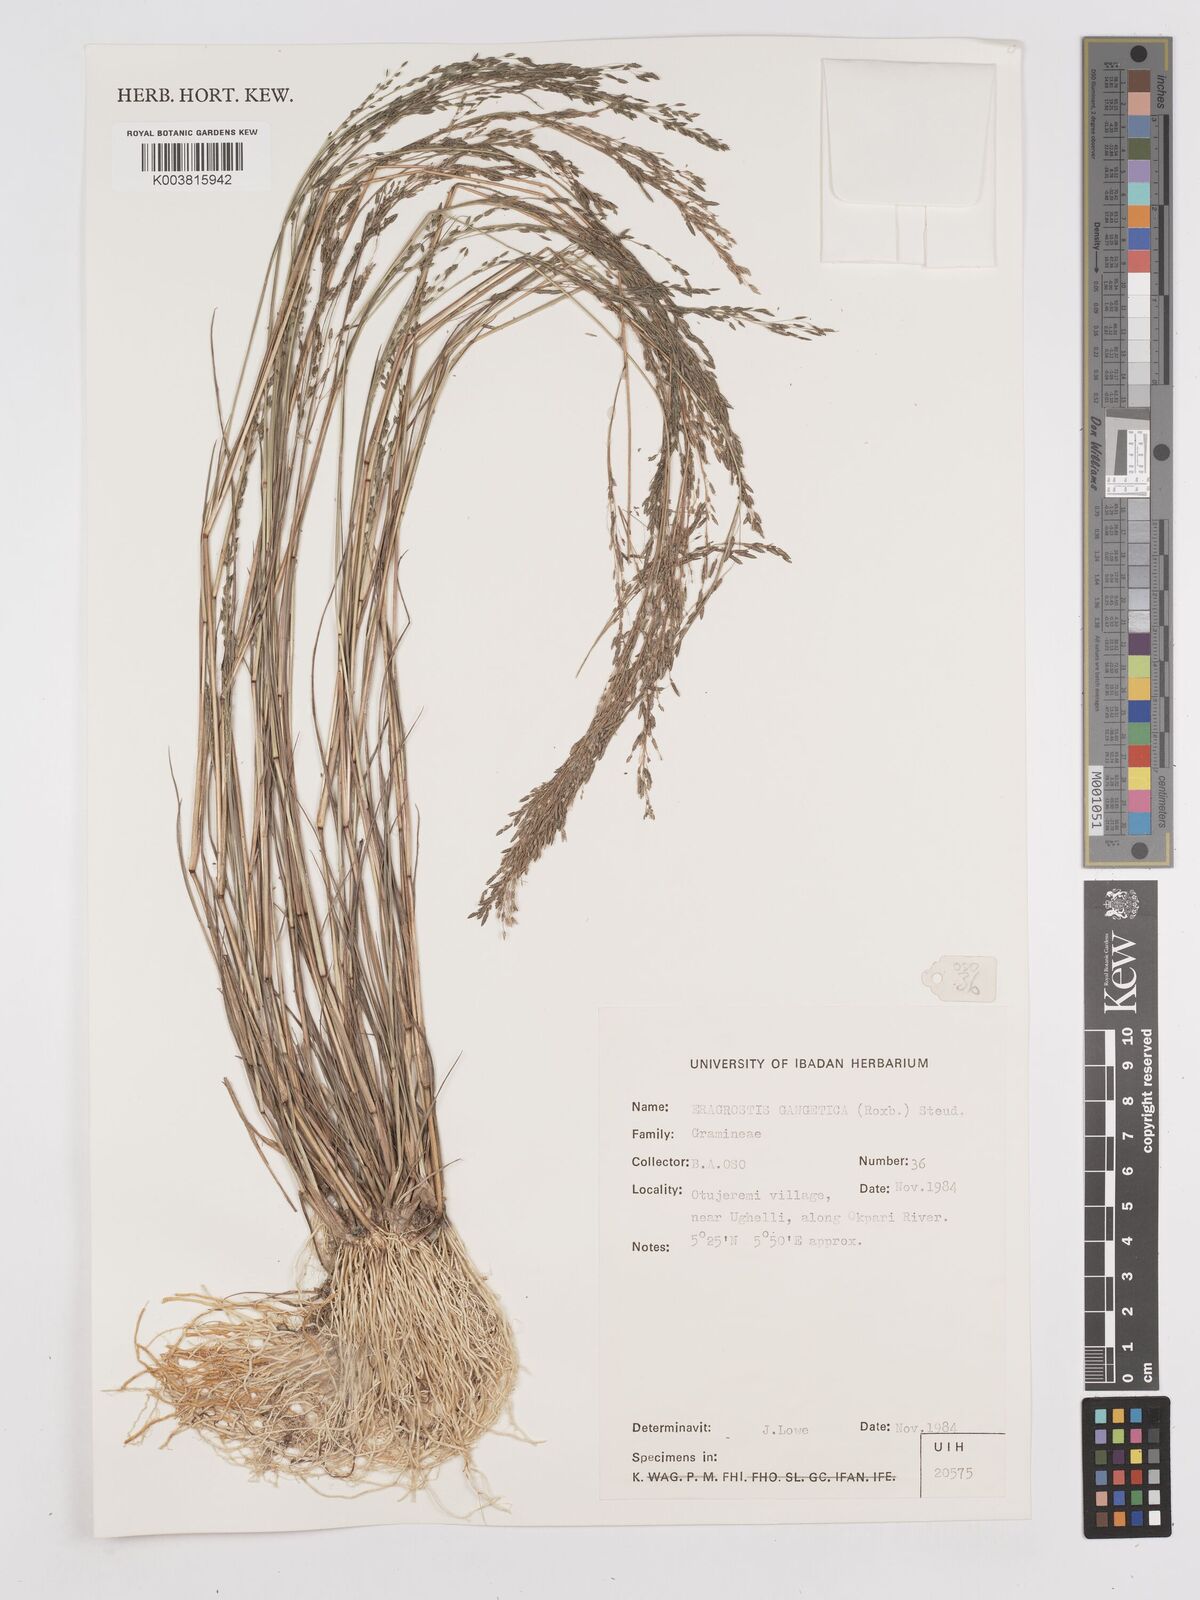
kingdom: Plantae
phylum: Tracheophyta
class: Liliopsida
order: Poales
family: Poaceae
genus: Eragrostis
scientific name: Eragrostis gangetica
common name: Slimflower lovegrass
